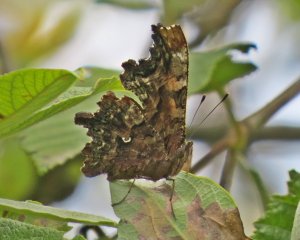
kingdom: Animalia
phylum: Arthropoda
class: Insecta
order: Lepidoptera
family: Nymphalidae
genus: Polygonia
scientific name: Polygonia faunus
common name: Green Comma
